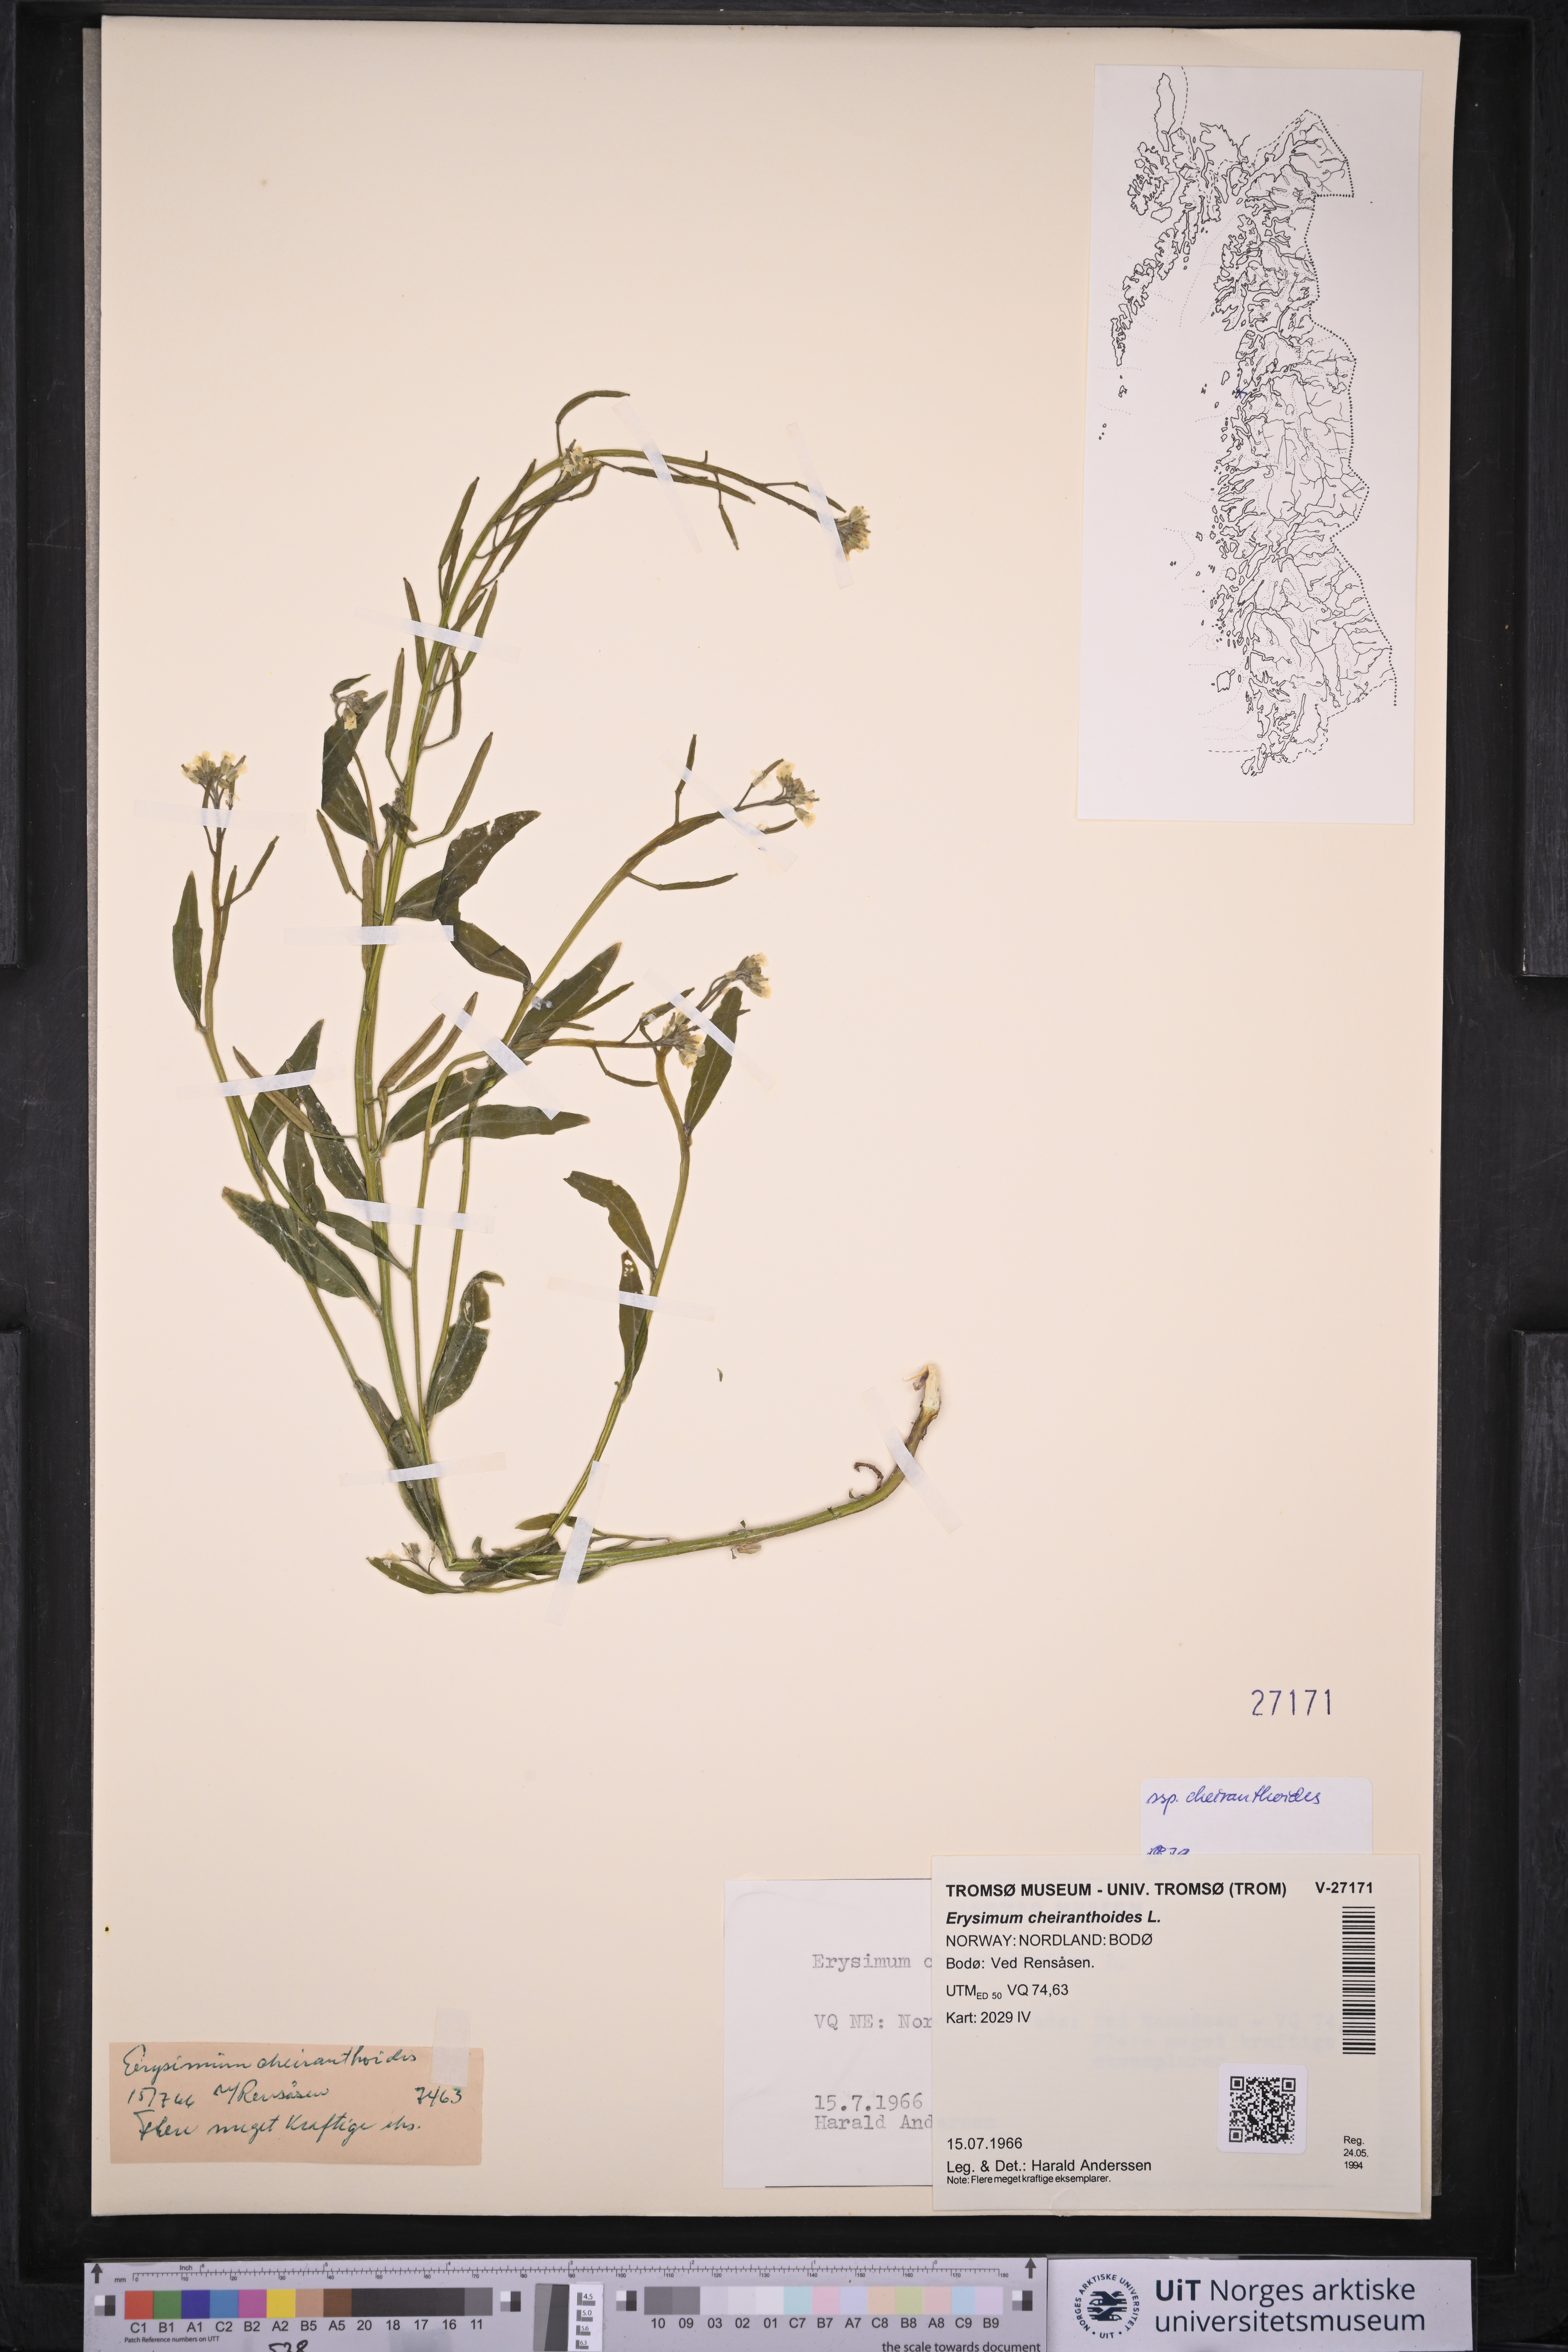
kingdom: Plantae
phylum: Tracheophyta
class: Magnoliopsida
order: Brassicales
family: Brassicaceae
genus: Erysimum
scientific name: Erysimum cheiranthoides
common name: Treacle mustard
